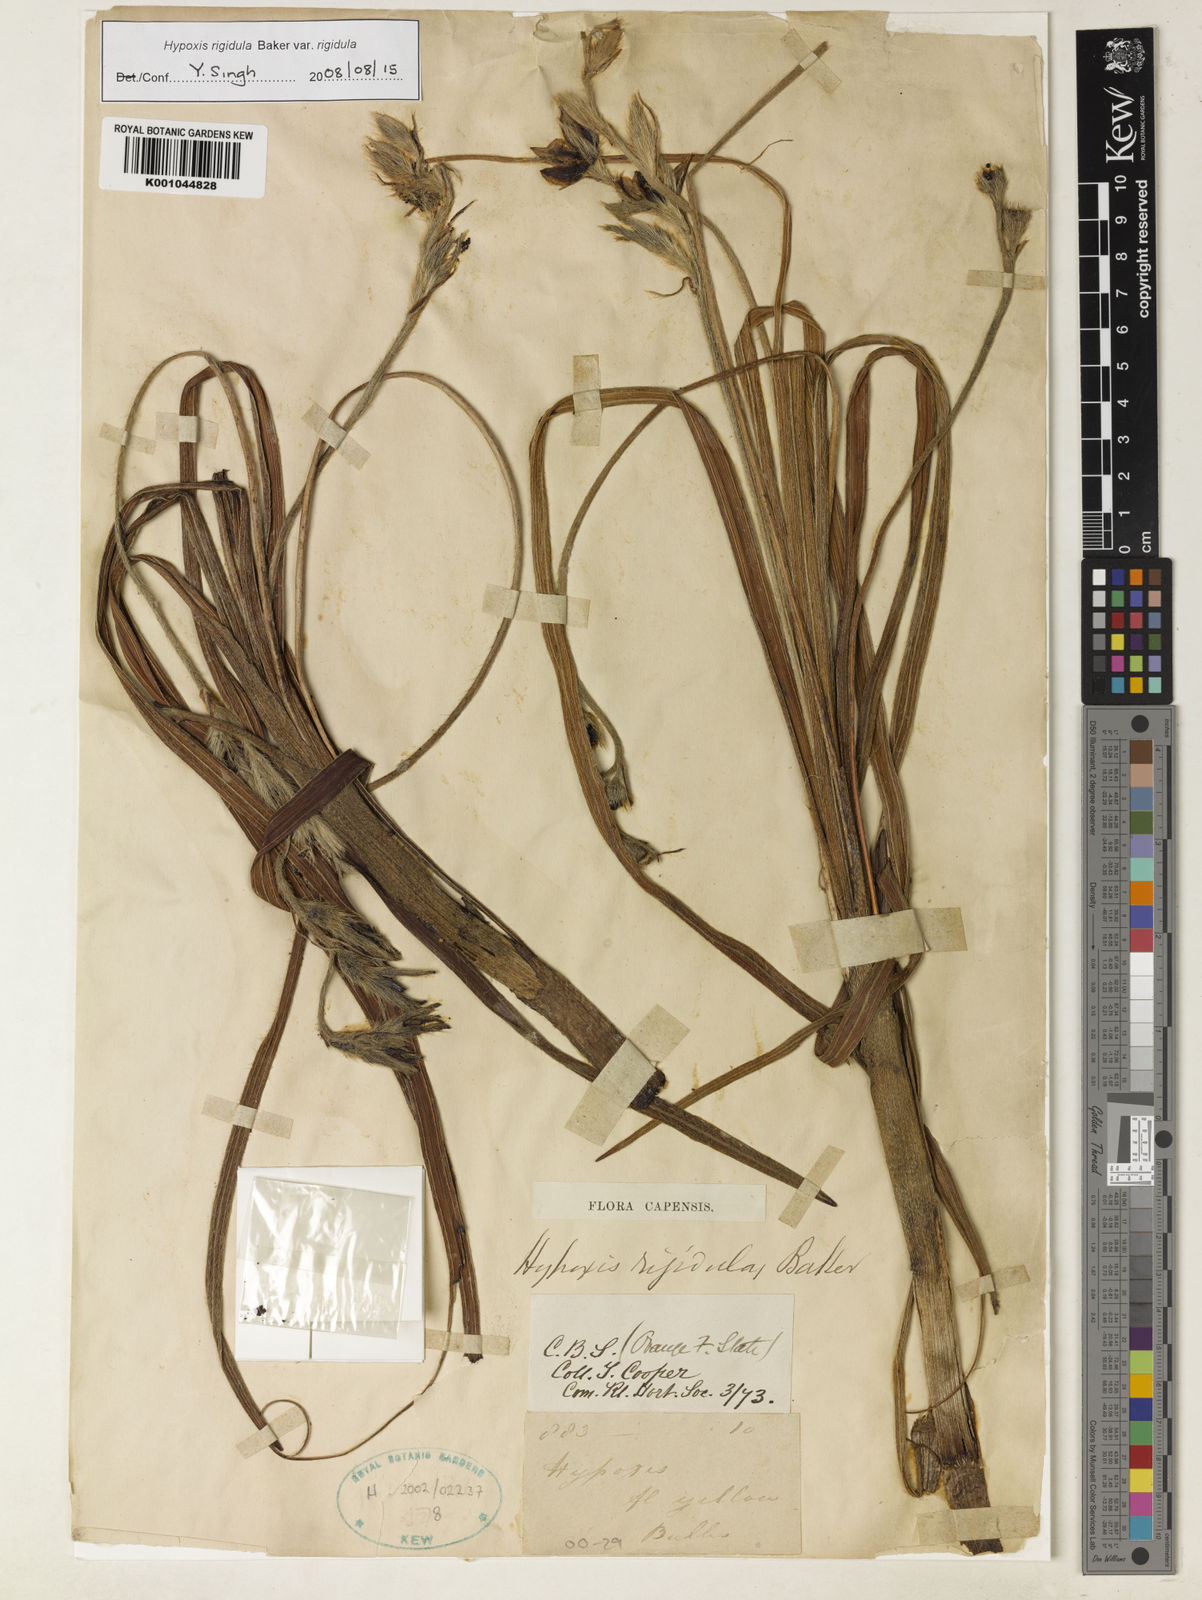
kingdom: Plantae
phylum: Tracheophyta
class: Liliopsida
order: Asparagales
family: Hypoxidaceae
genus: Hypoxis
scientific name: Hypoxis rigidula
